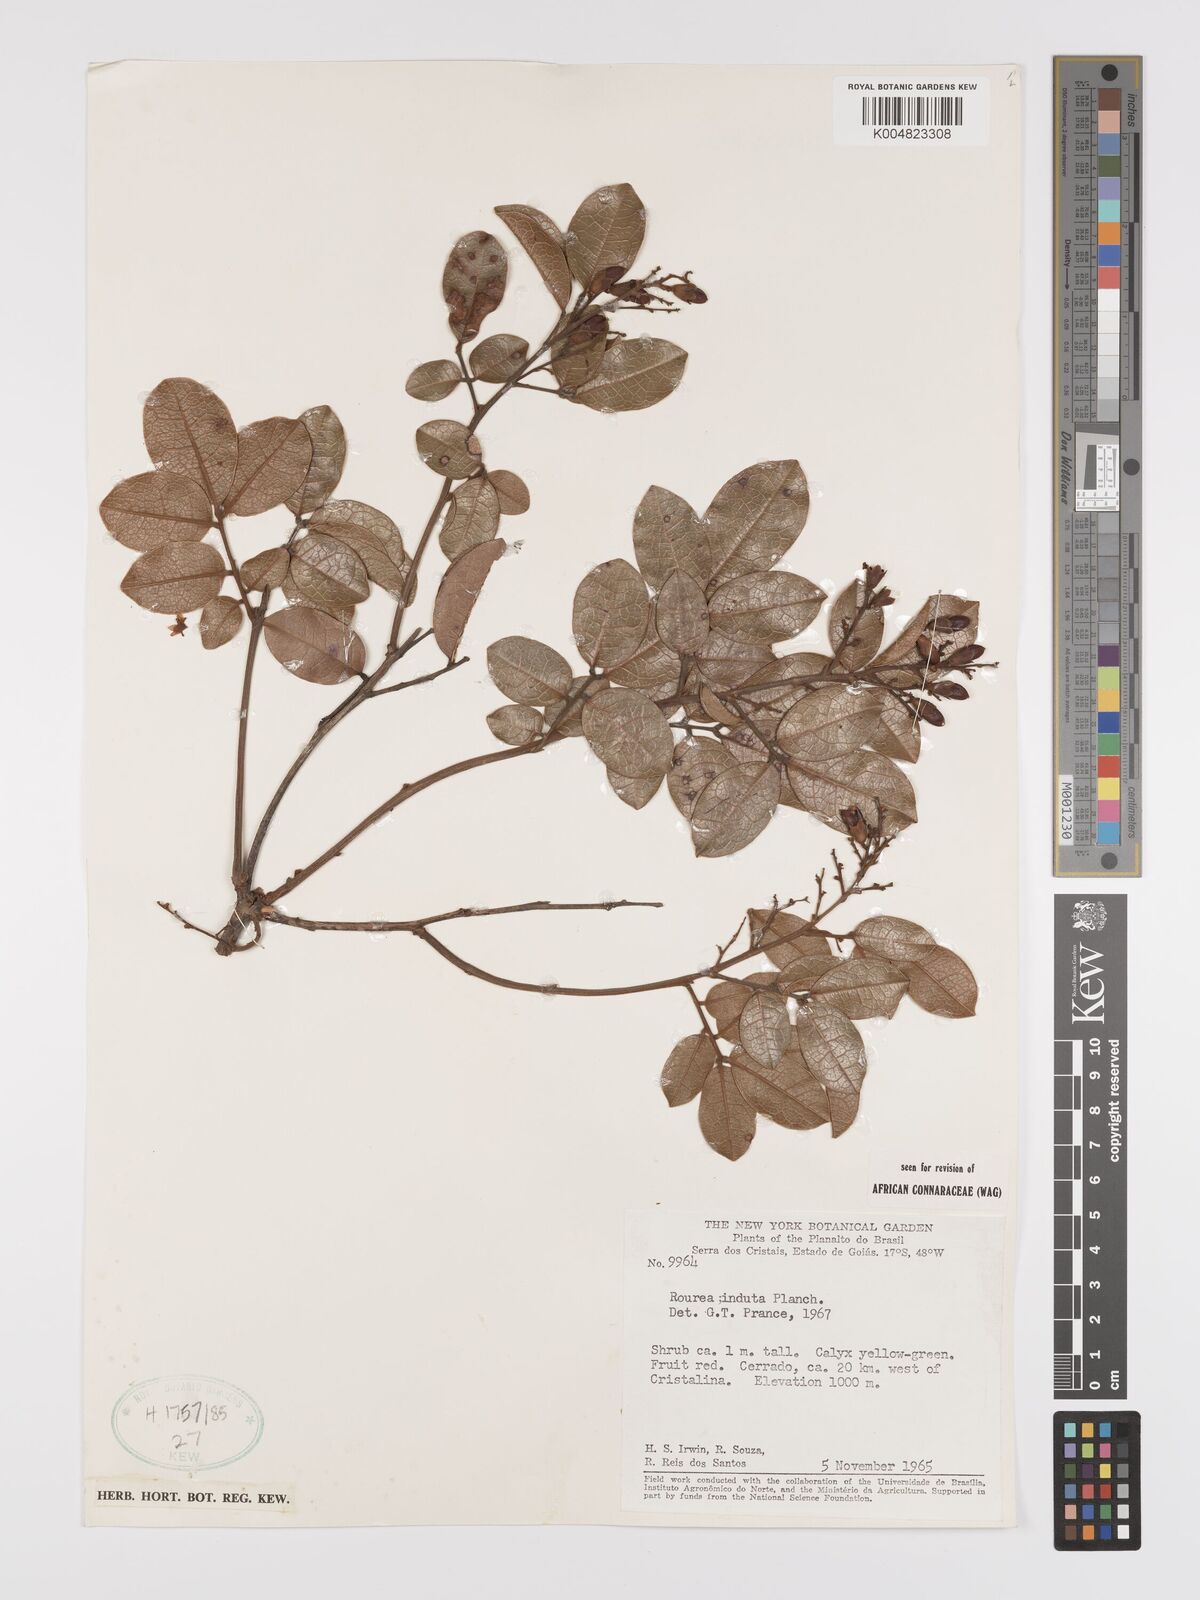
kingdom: Plantae
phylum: Tracheophyta
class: Magnoliopsida
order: Oxalidales
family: Connaraceae
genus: Rourea
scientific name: Rourea induta
